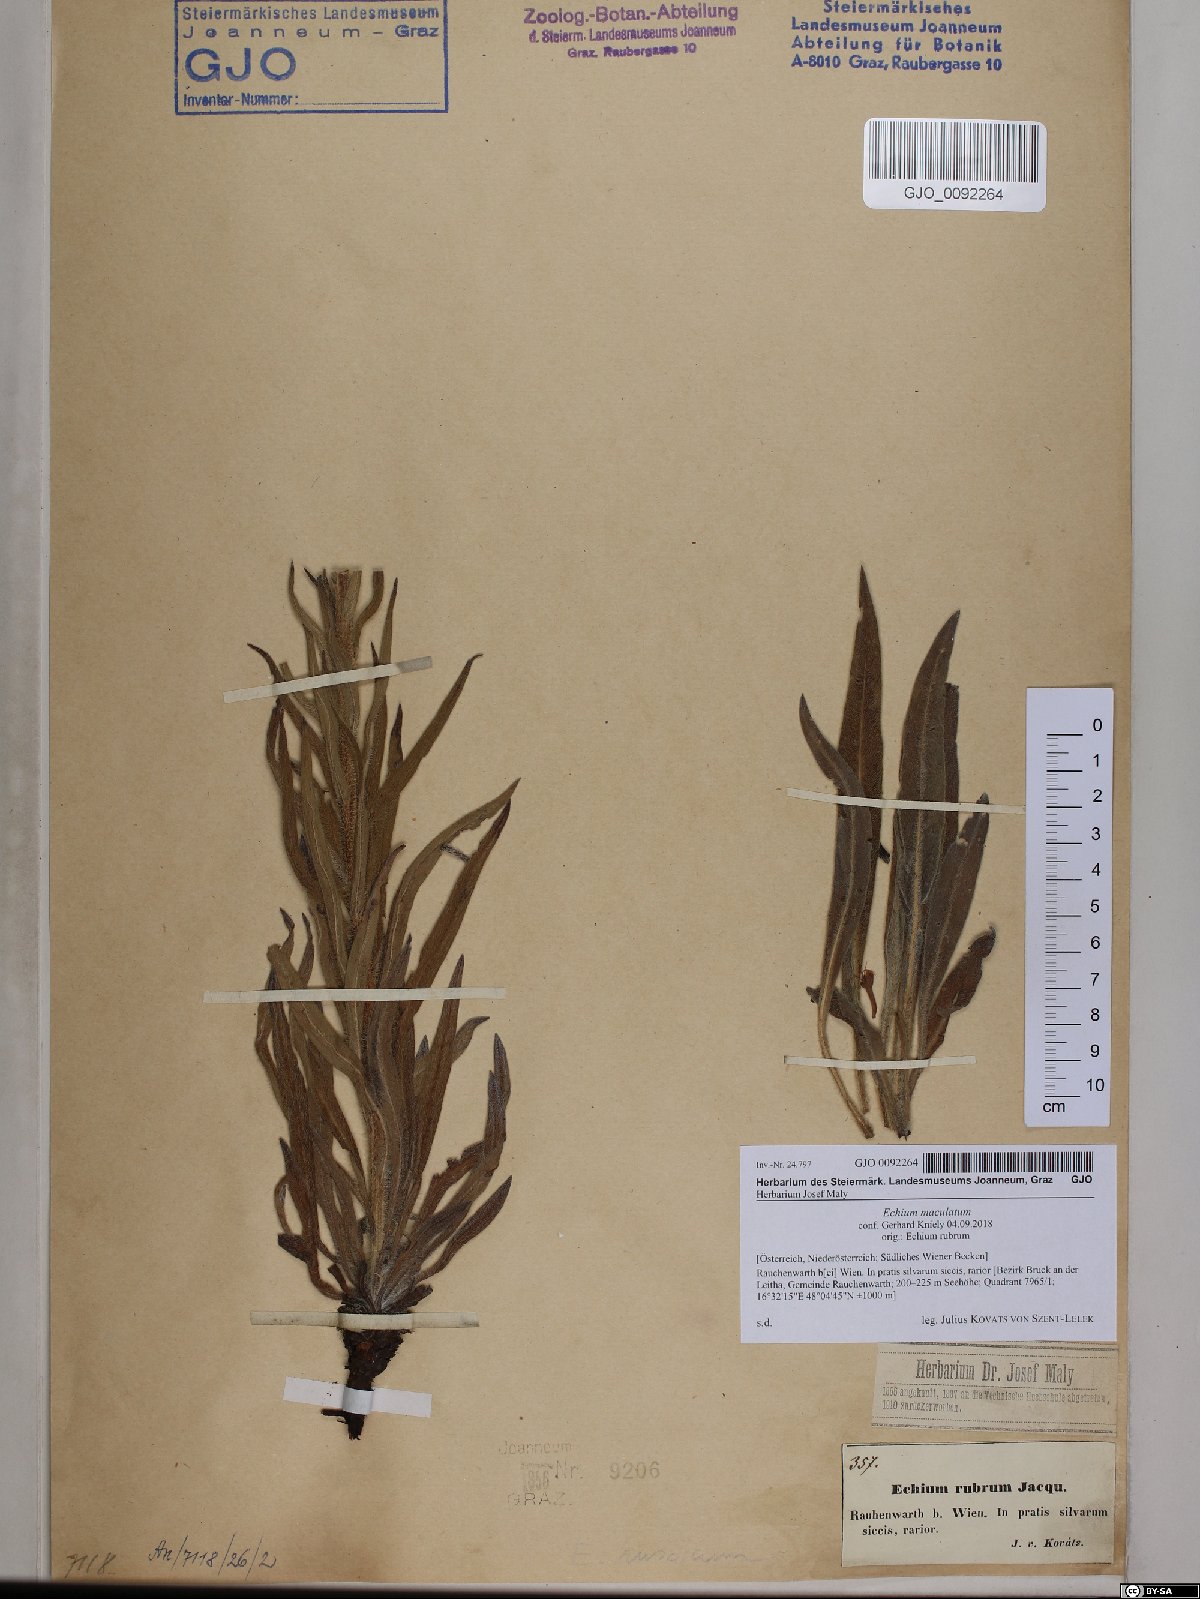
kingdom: Plantae
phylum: Tracheophyta
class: Magnoliopsida
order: Boraginales
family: Boraginaceae
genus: Pontechium
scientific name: Pontechium maculatum
